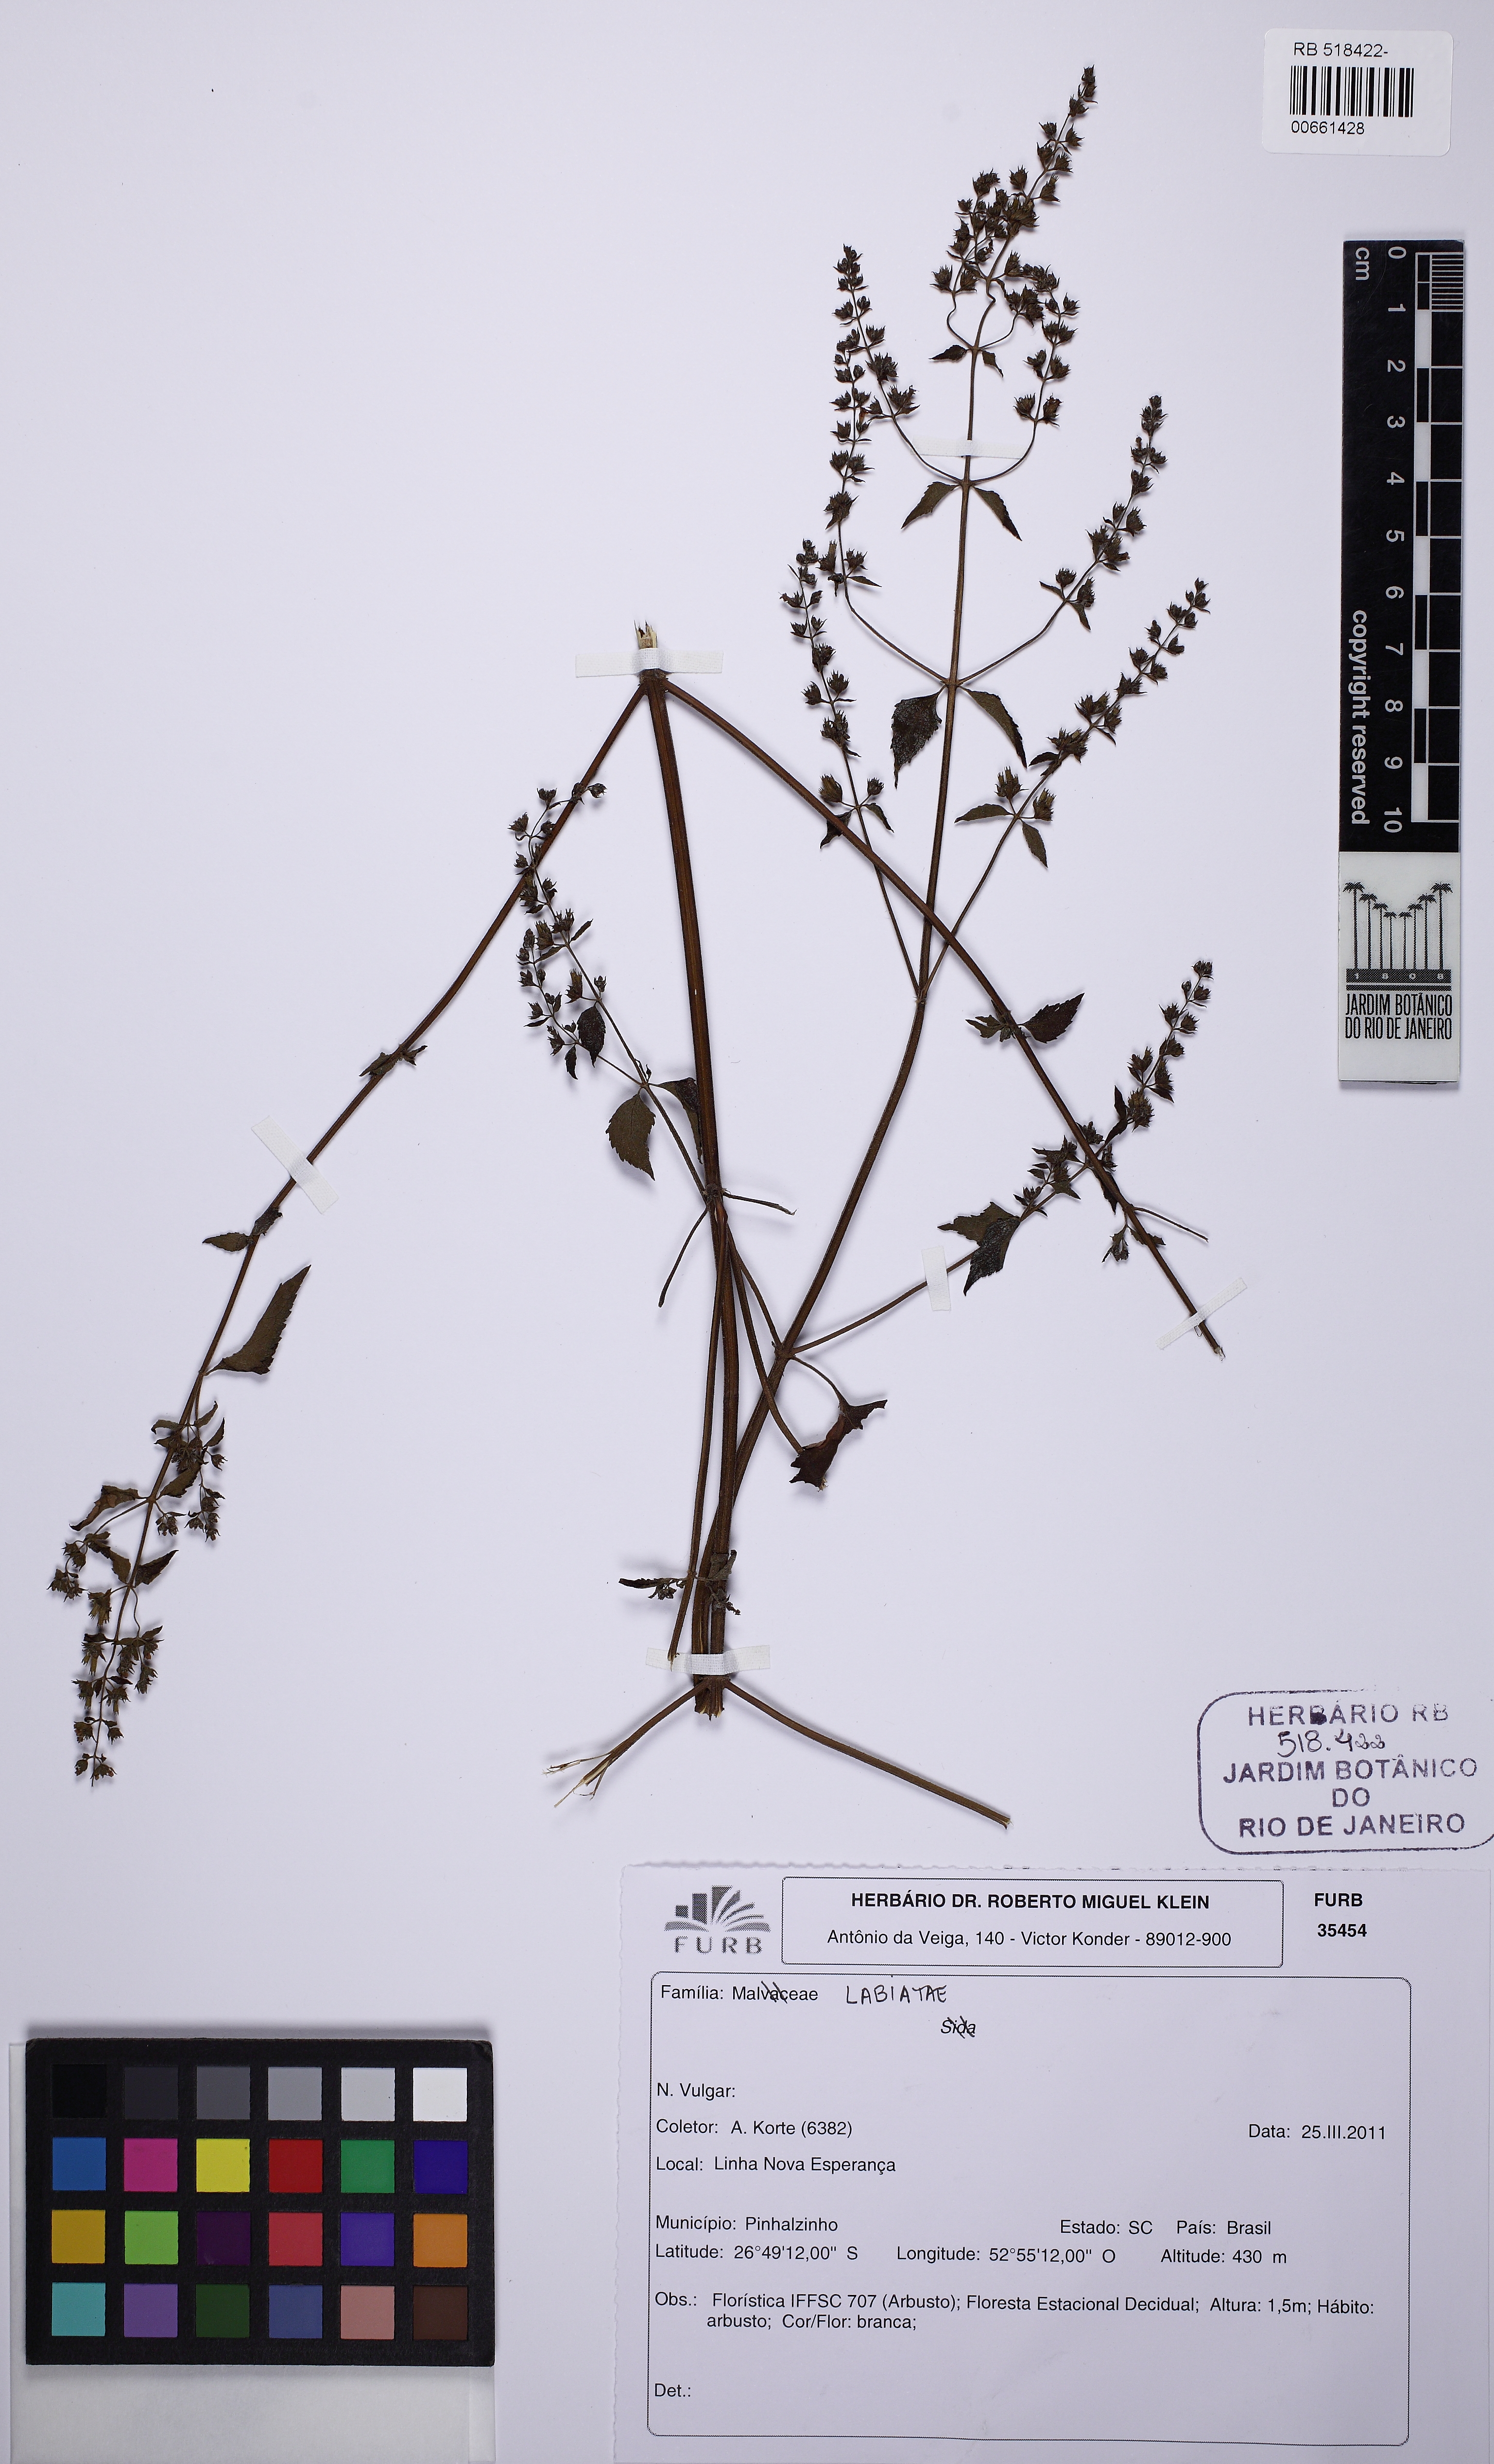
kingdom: Plantae
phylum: Tracheophyta
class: Magnoliopsida
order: Lamiales
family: Lamiaceae
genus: Cantinoa
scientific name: Cantinoa
